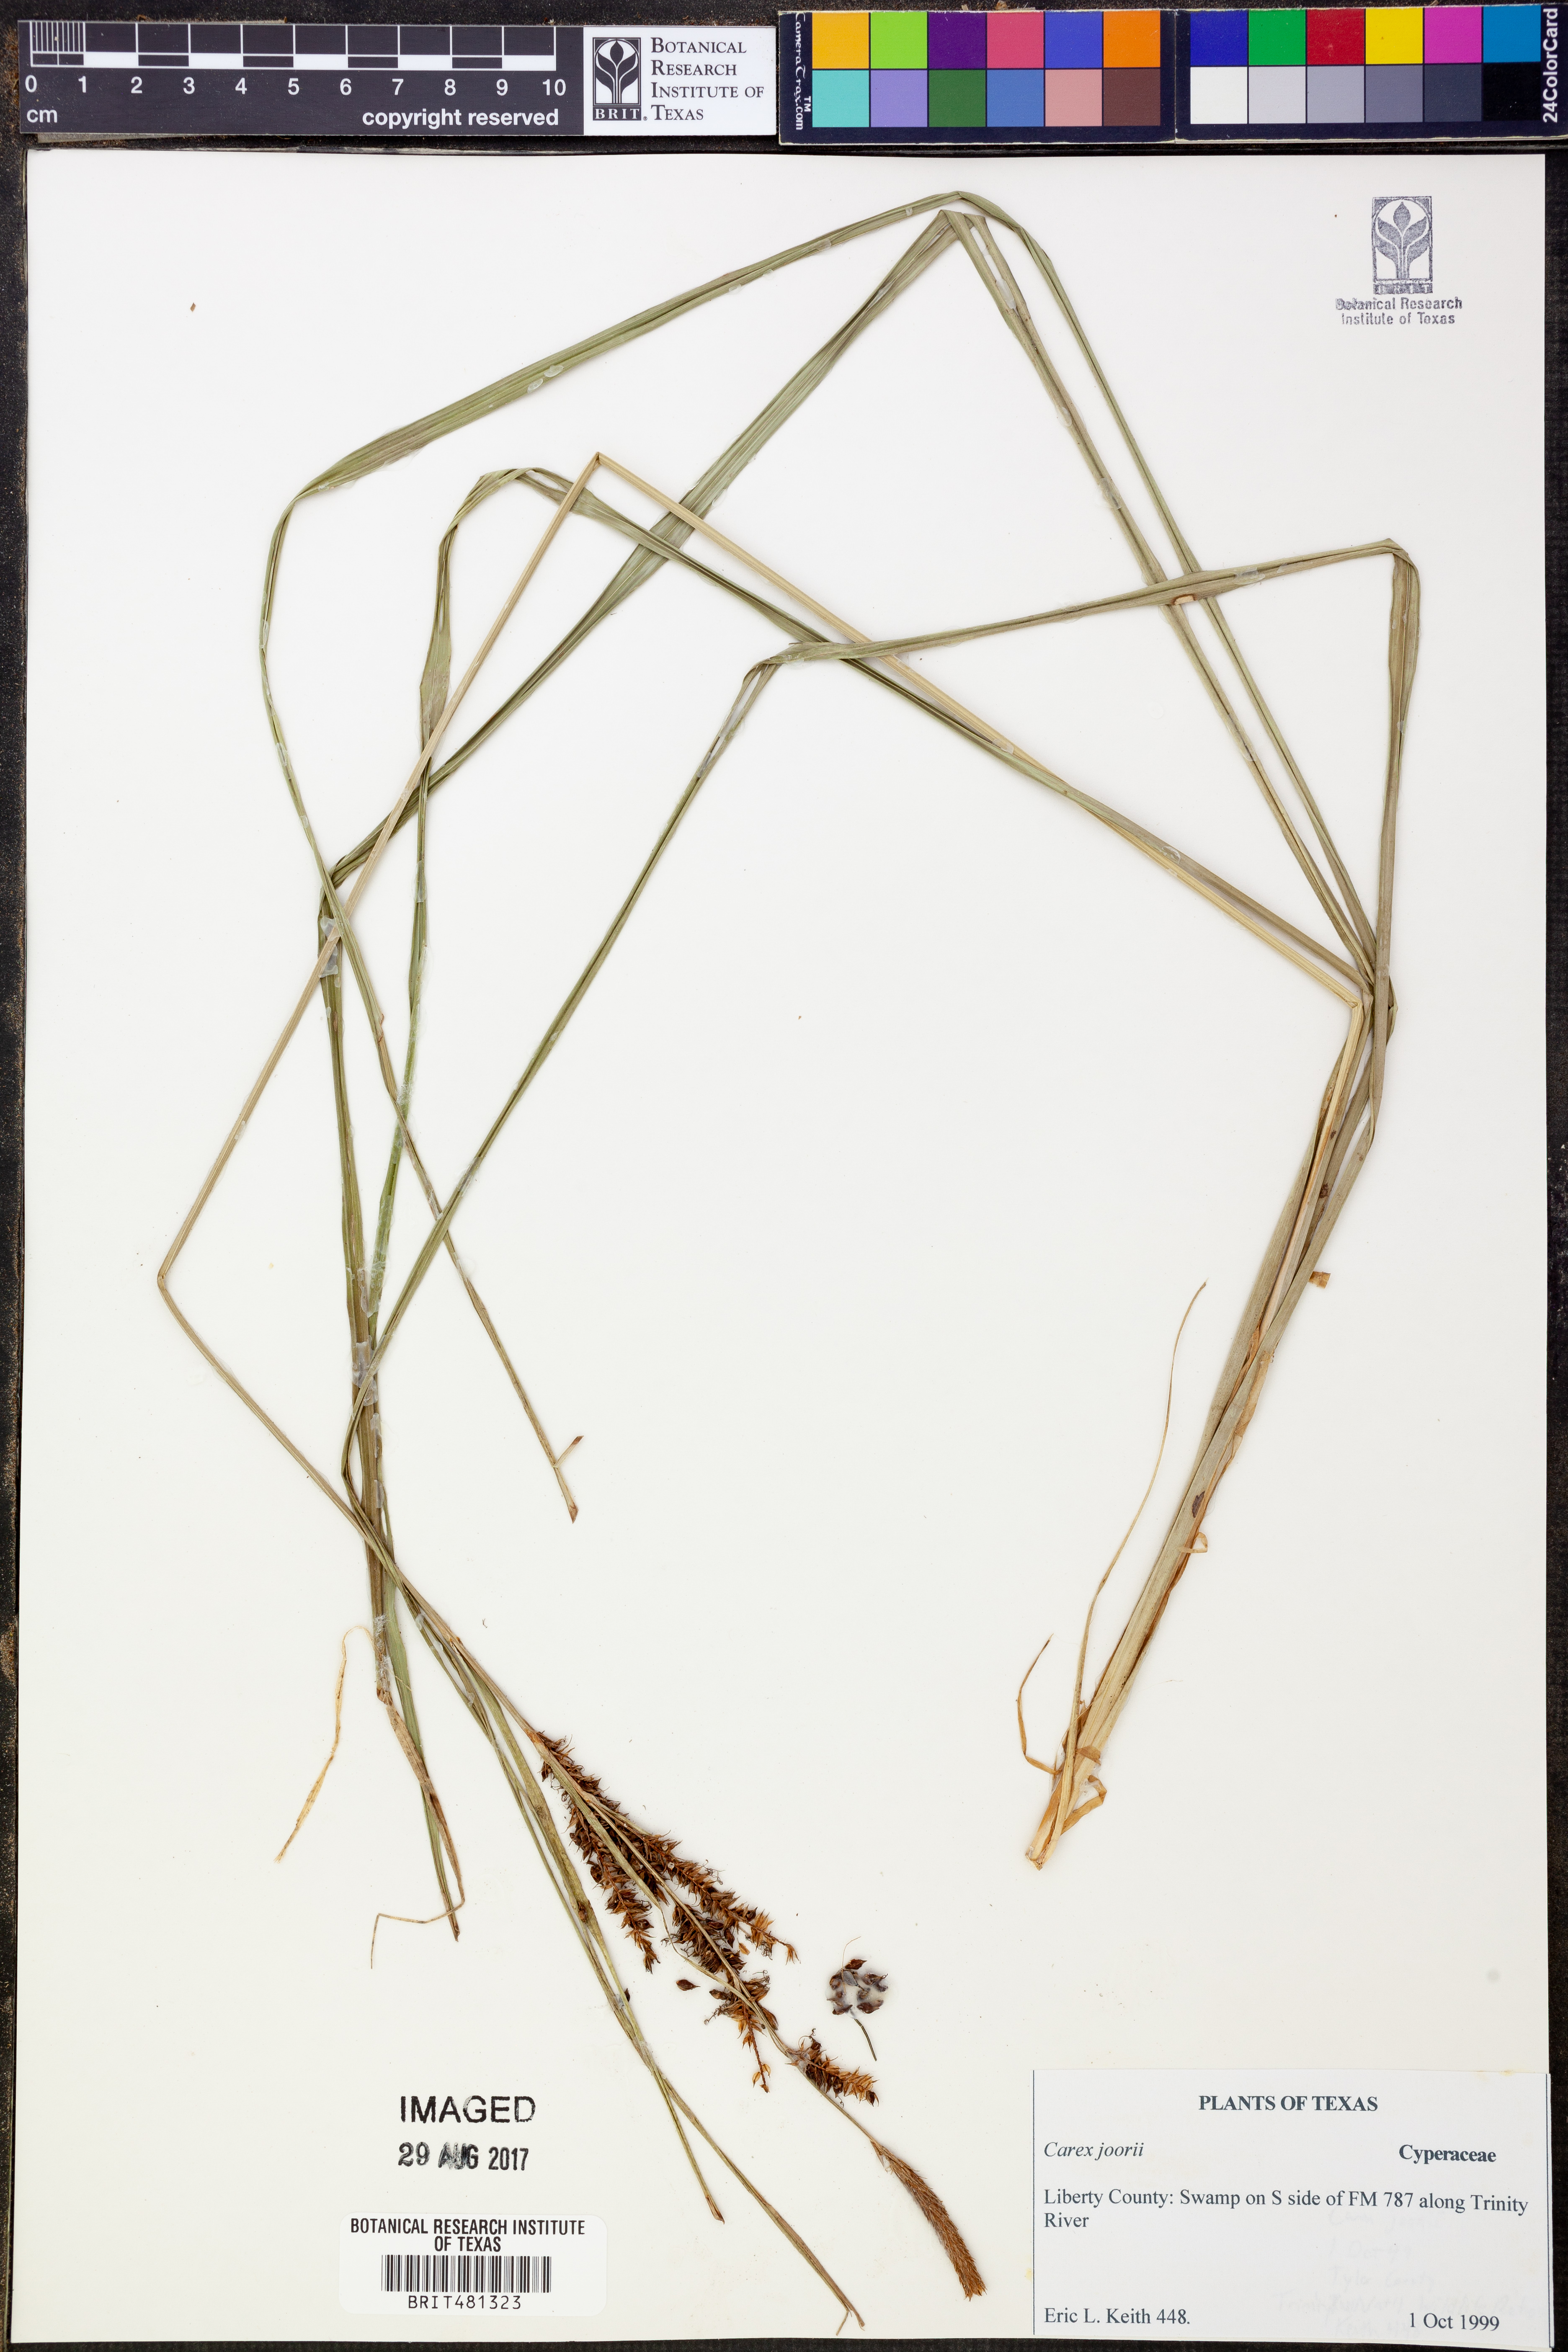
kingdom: Plantae
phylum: Tracheophyta
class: Liliopsida
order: Poales
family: Cyperaceae
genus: Carex
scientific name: Carex joorii
